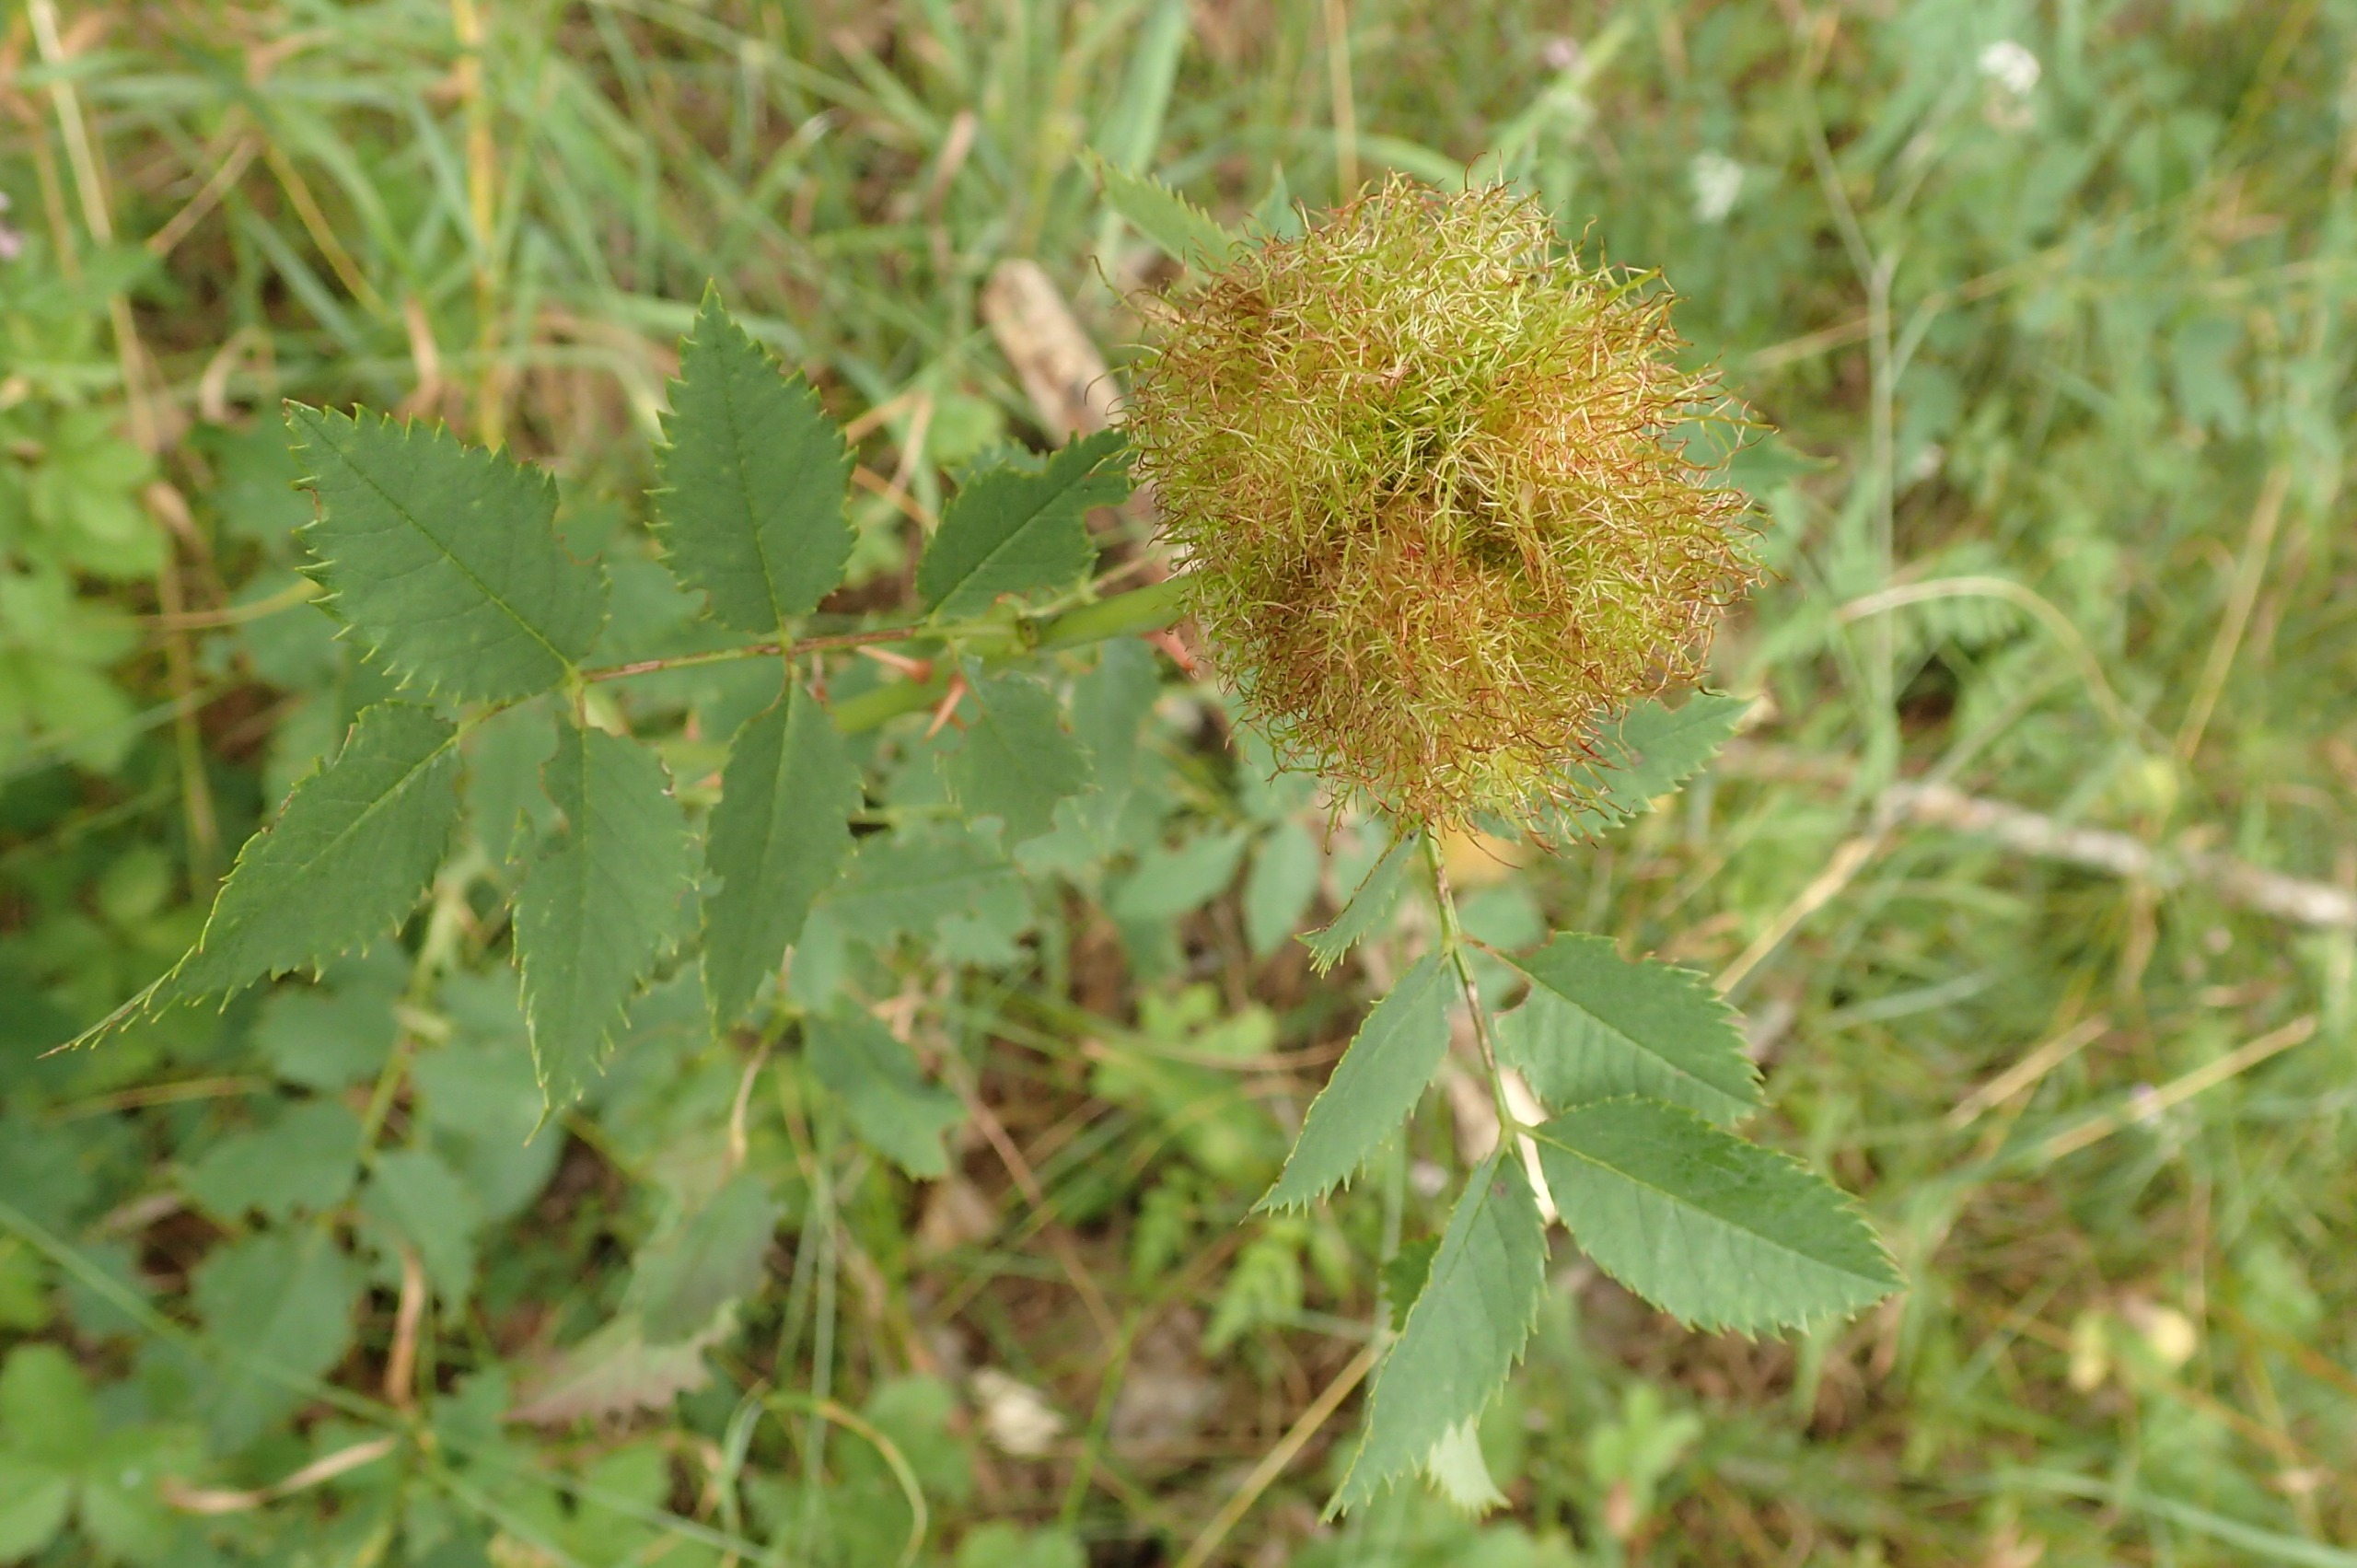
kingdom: Animalia
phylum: Arthropoda
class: Insecta
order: Hymenoptera
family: Cynipidae
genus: Diplolepis
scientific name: Diplolepis rosae
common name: Bedeguargalhveps
